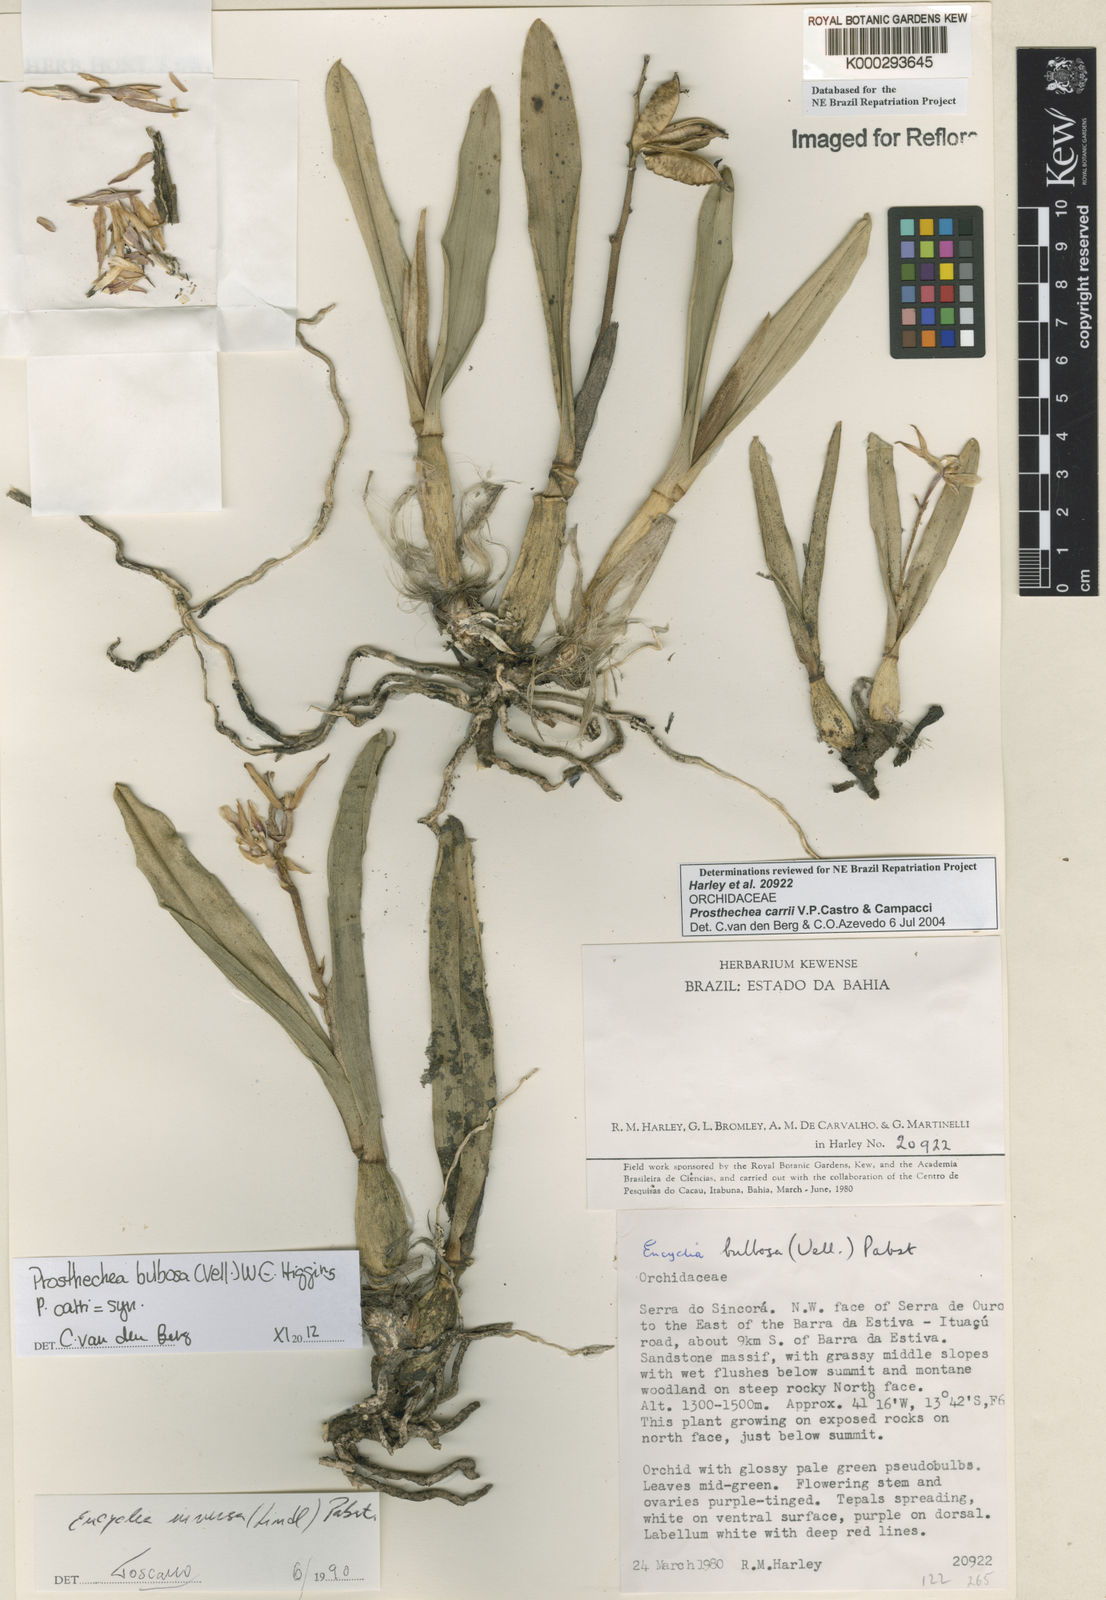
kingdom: Plantae
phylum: Tracheophyta
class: Liliopsida
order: Asparagales
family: Orchidaceae
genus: Prosthechea
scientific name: Prosthechea carrii
